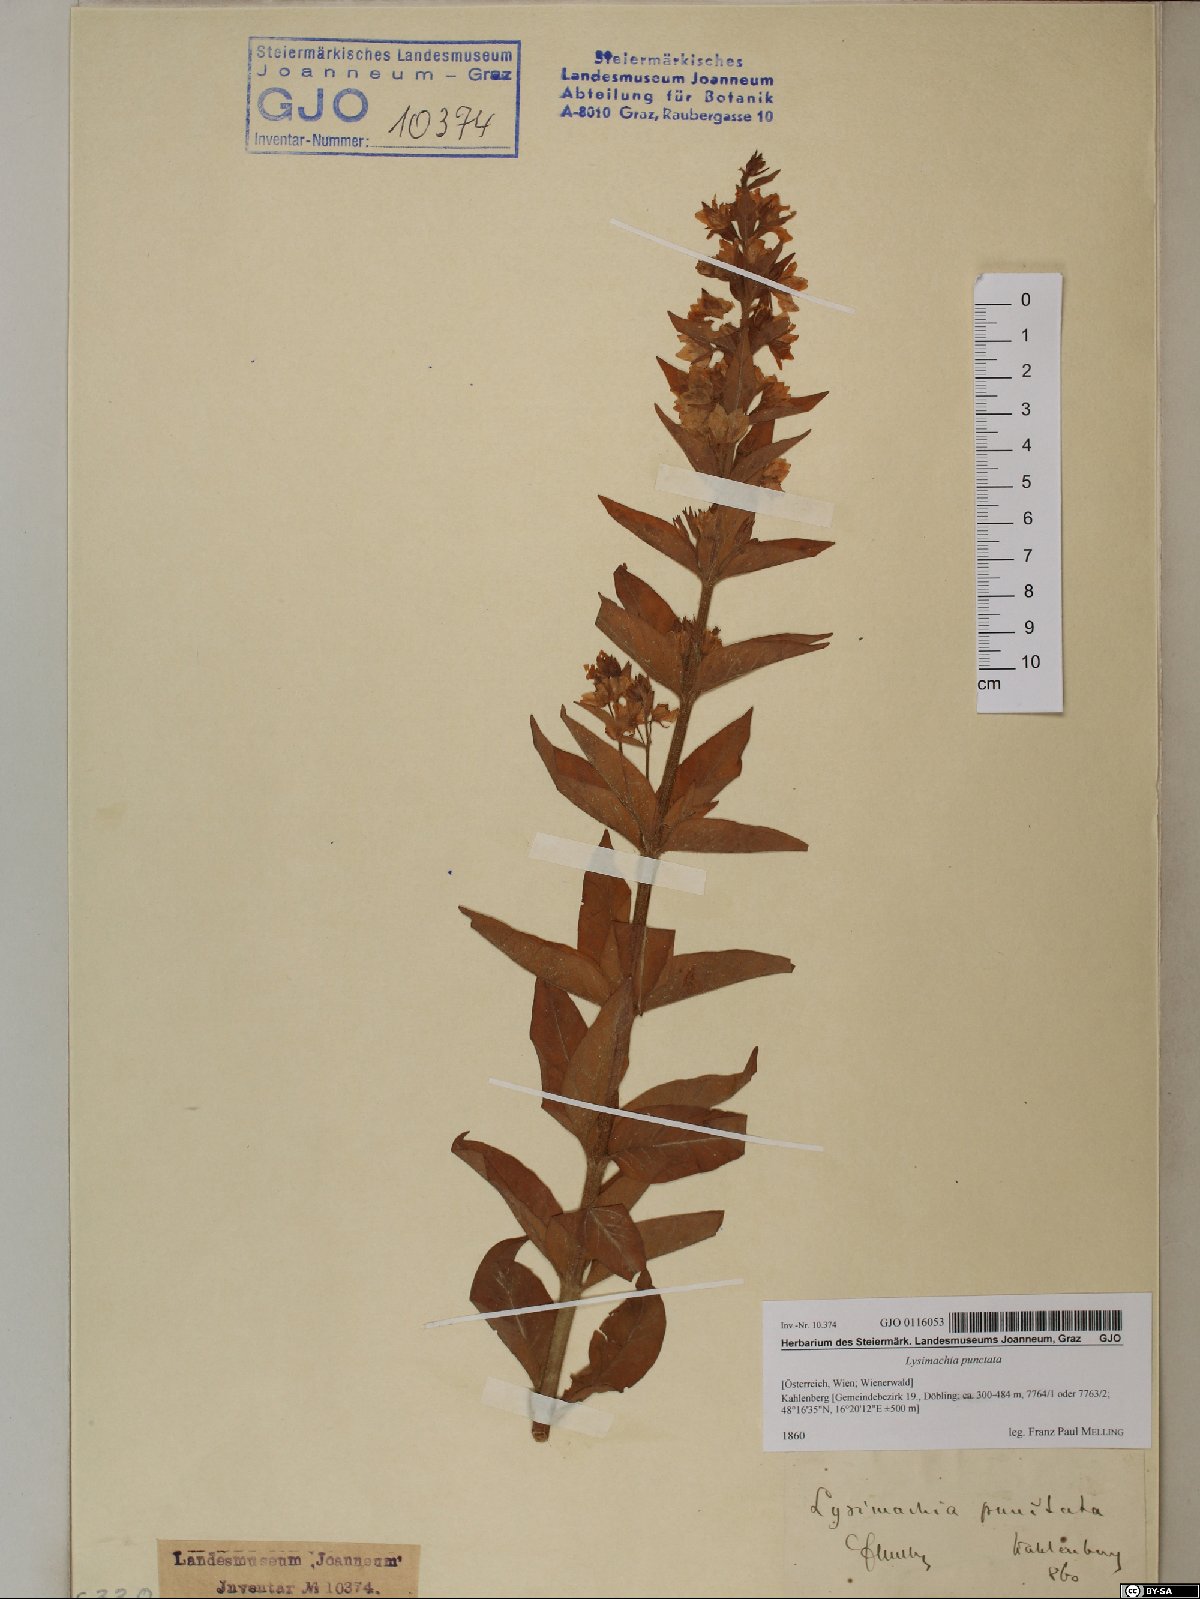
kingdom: Plantae
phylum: Tracheophyta
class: Magnoliopsida
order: Ericales
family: Primulaceae
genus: Lysimachia
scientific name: Lysimachia punctata
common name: Dotted loosestrife
